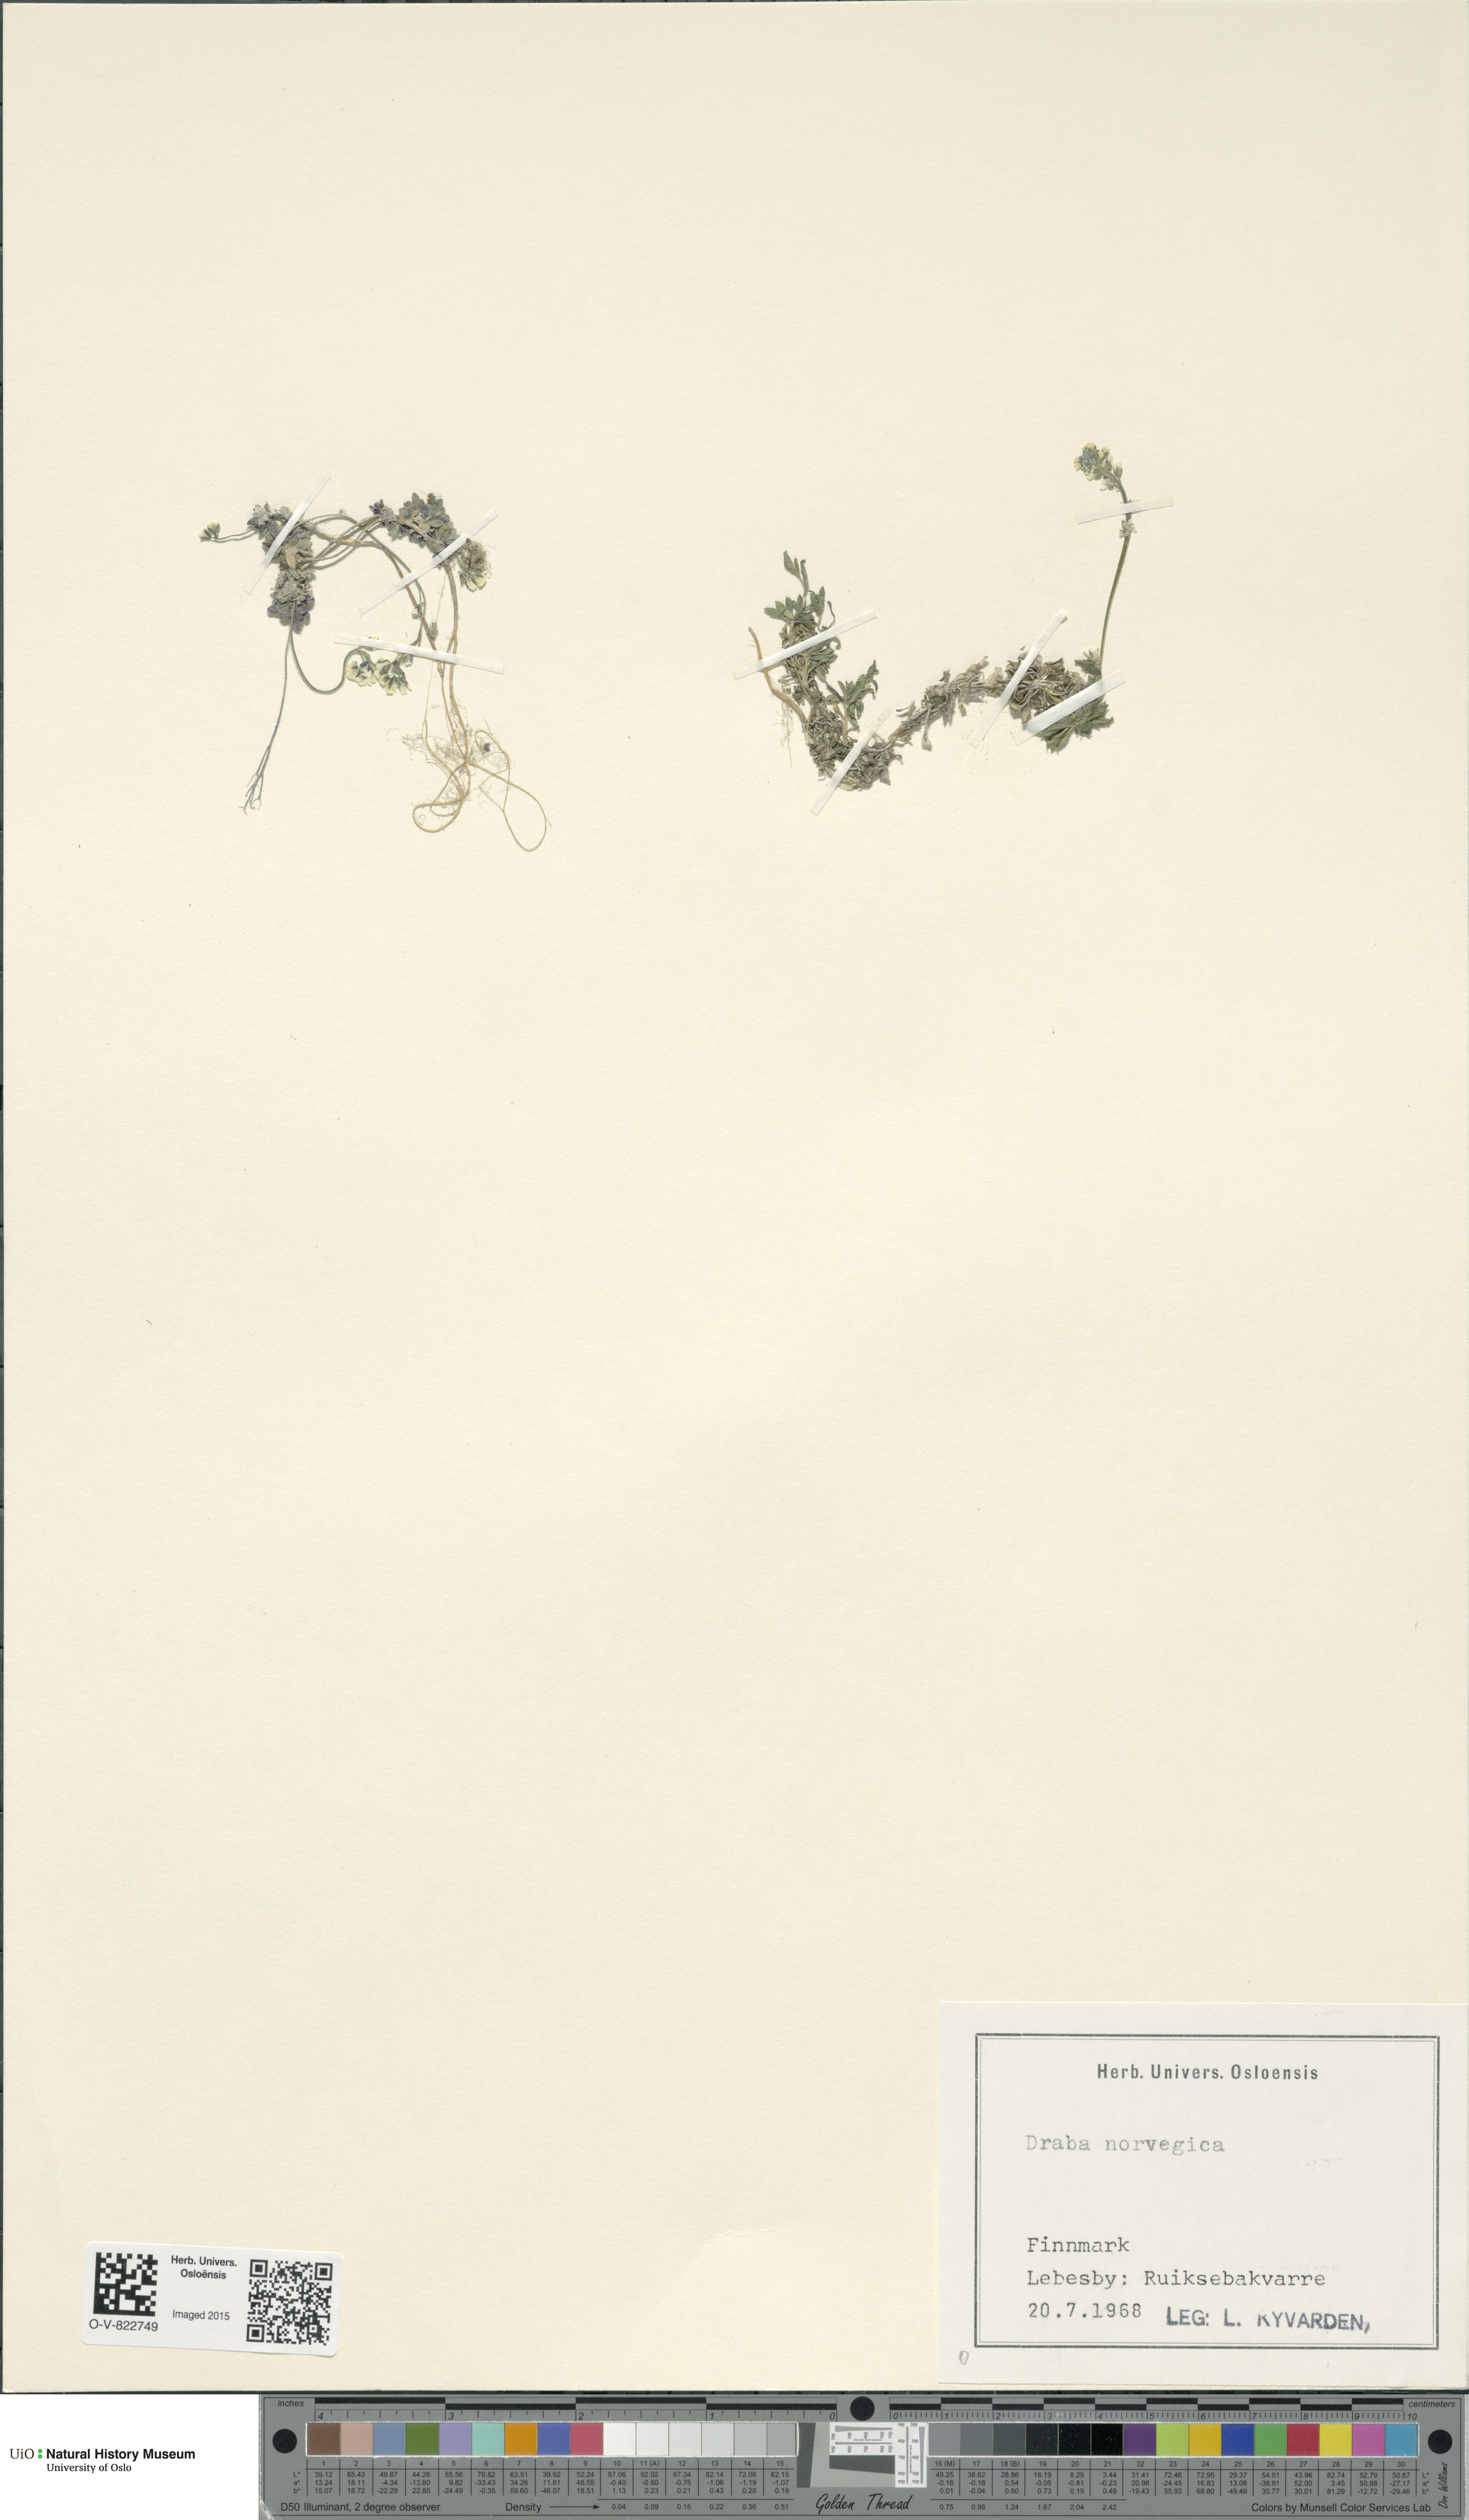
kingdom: Plantae
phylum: Tracheophyta
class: Magnoliopsida
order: Brassicales
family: Brassicaceae
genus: Draba
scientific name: Draba norvegica
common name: Rock whitlowgrass
